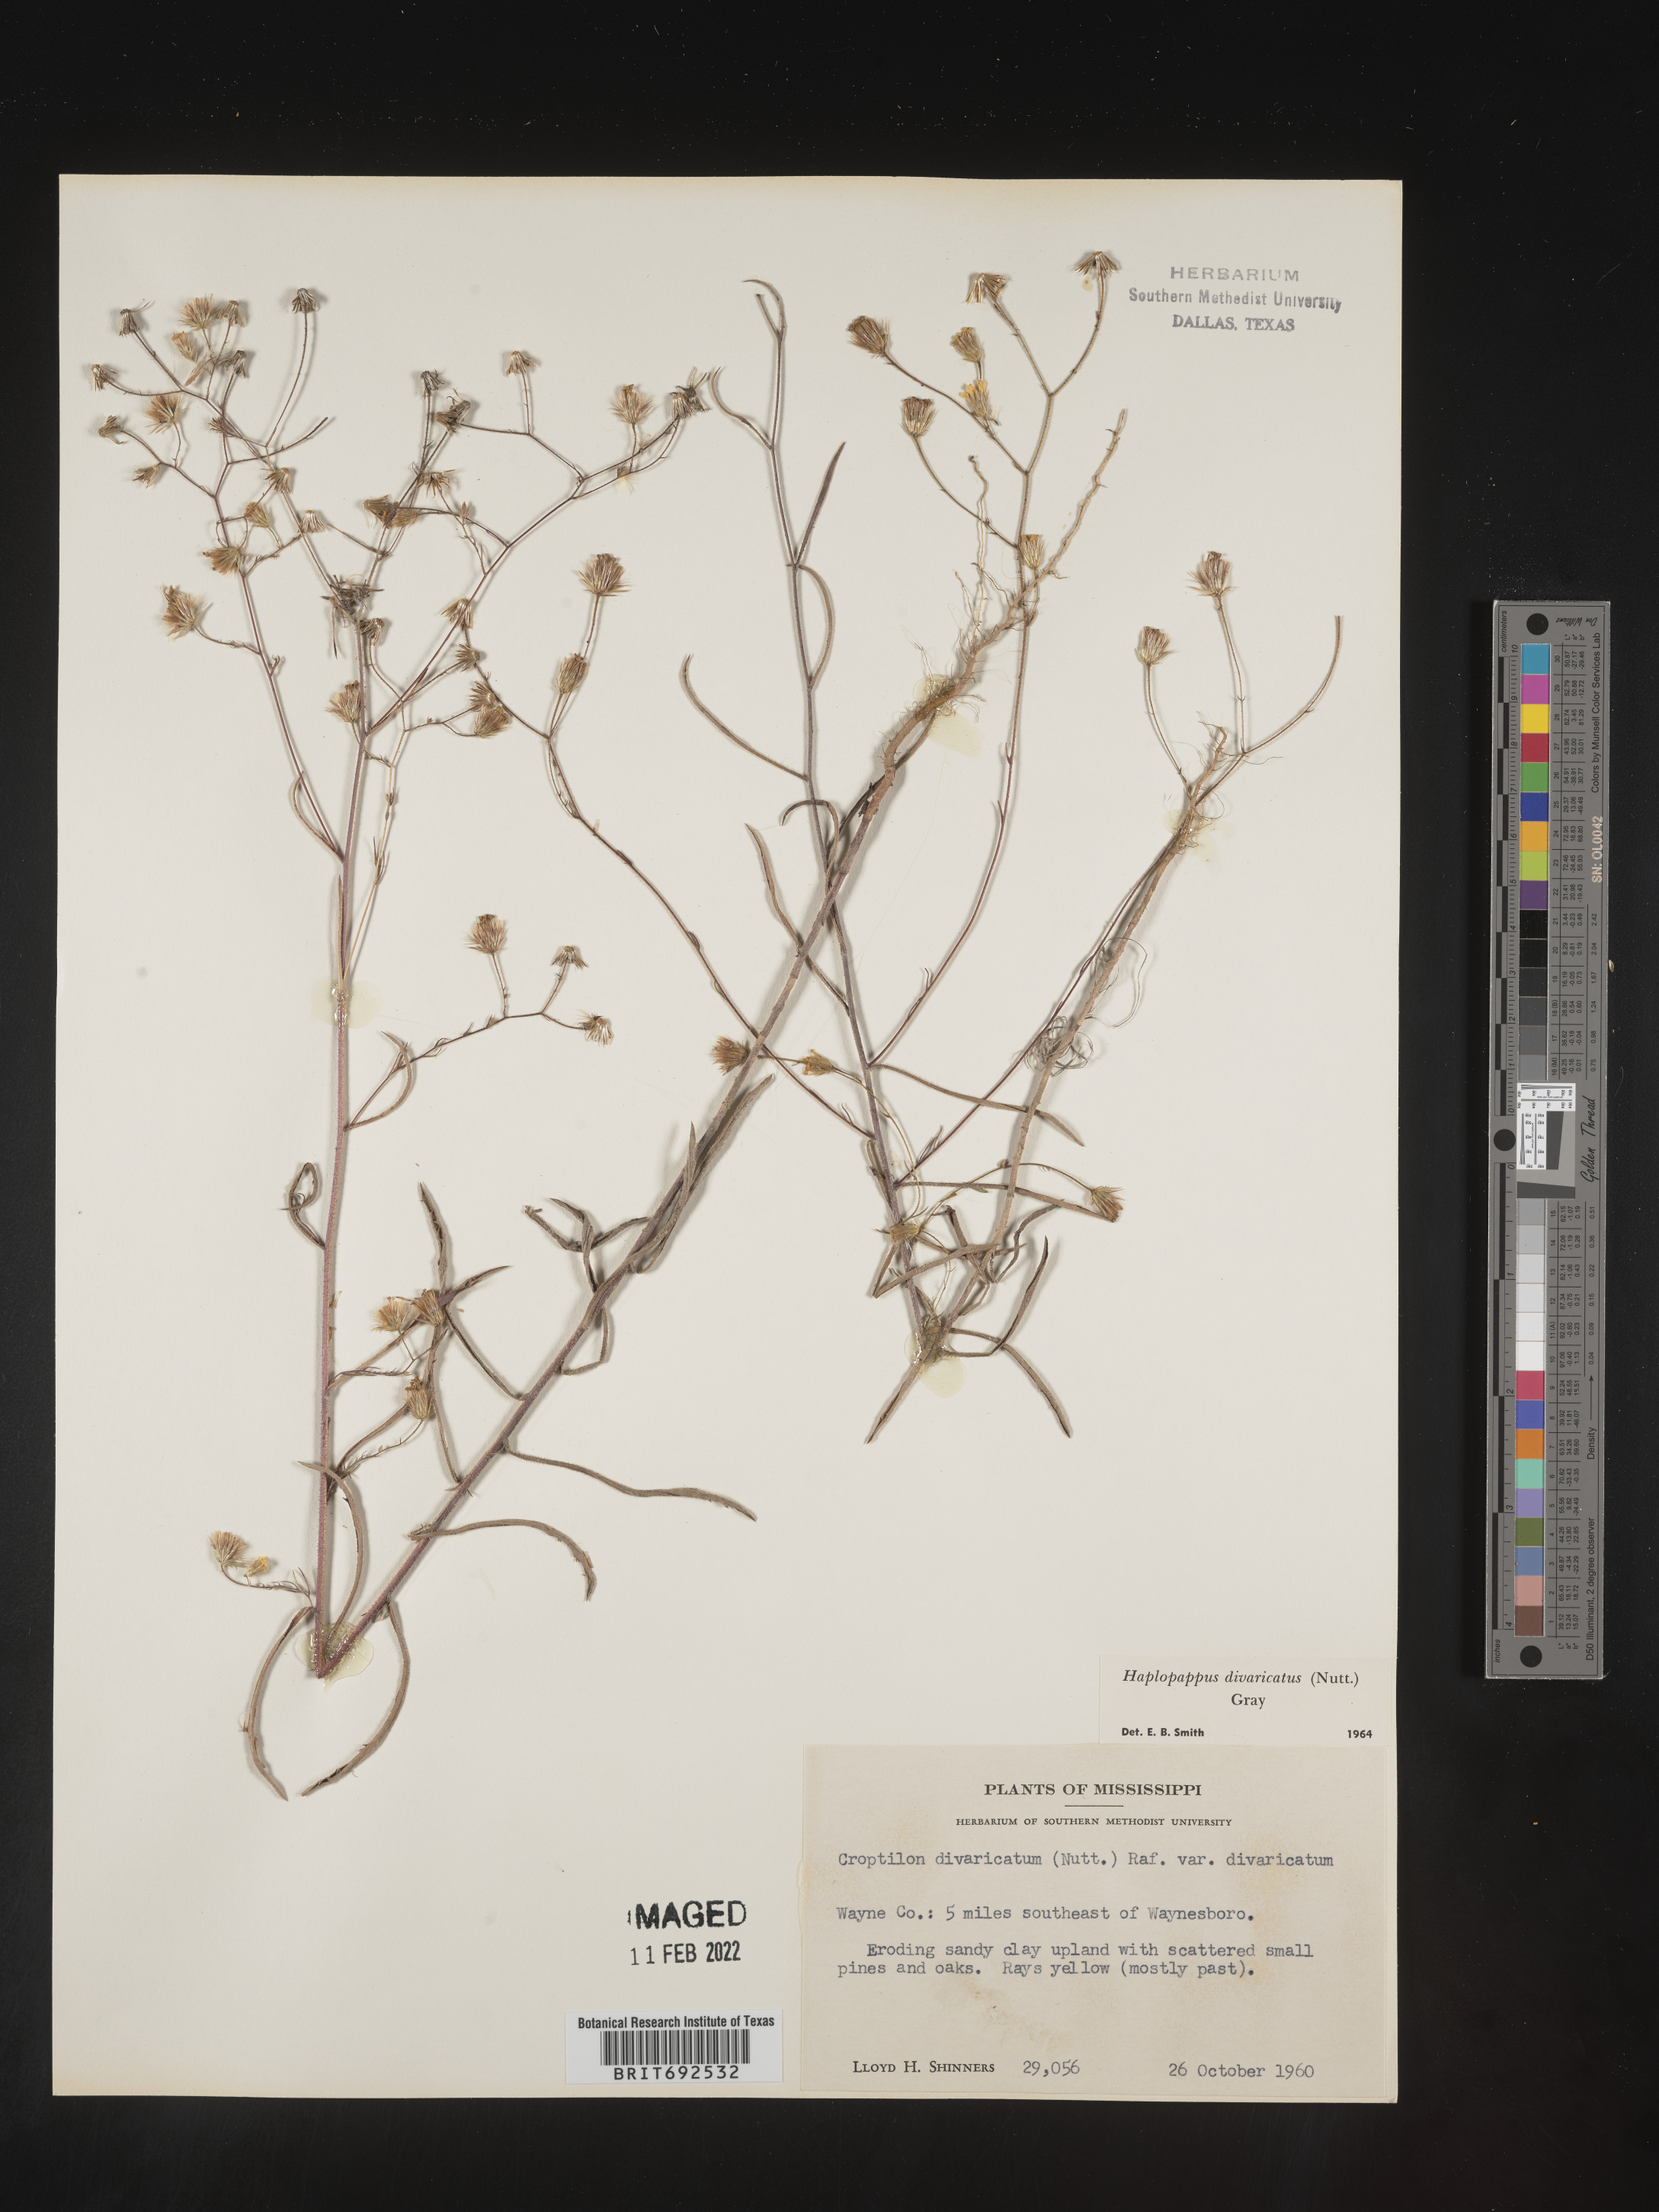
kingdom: Plantae
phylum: Tracheophyta
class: Magnoliopsida
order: Asterales
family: Asteraceae
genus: Croptilon
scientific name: Croptilon divaricatum
